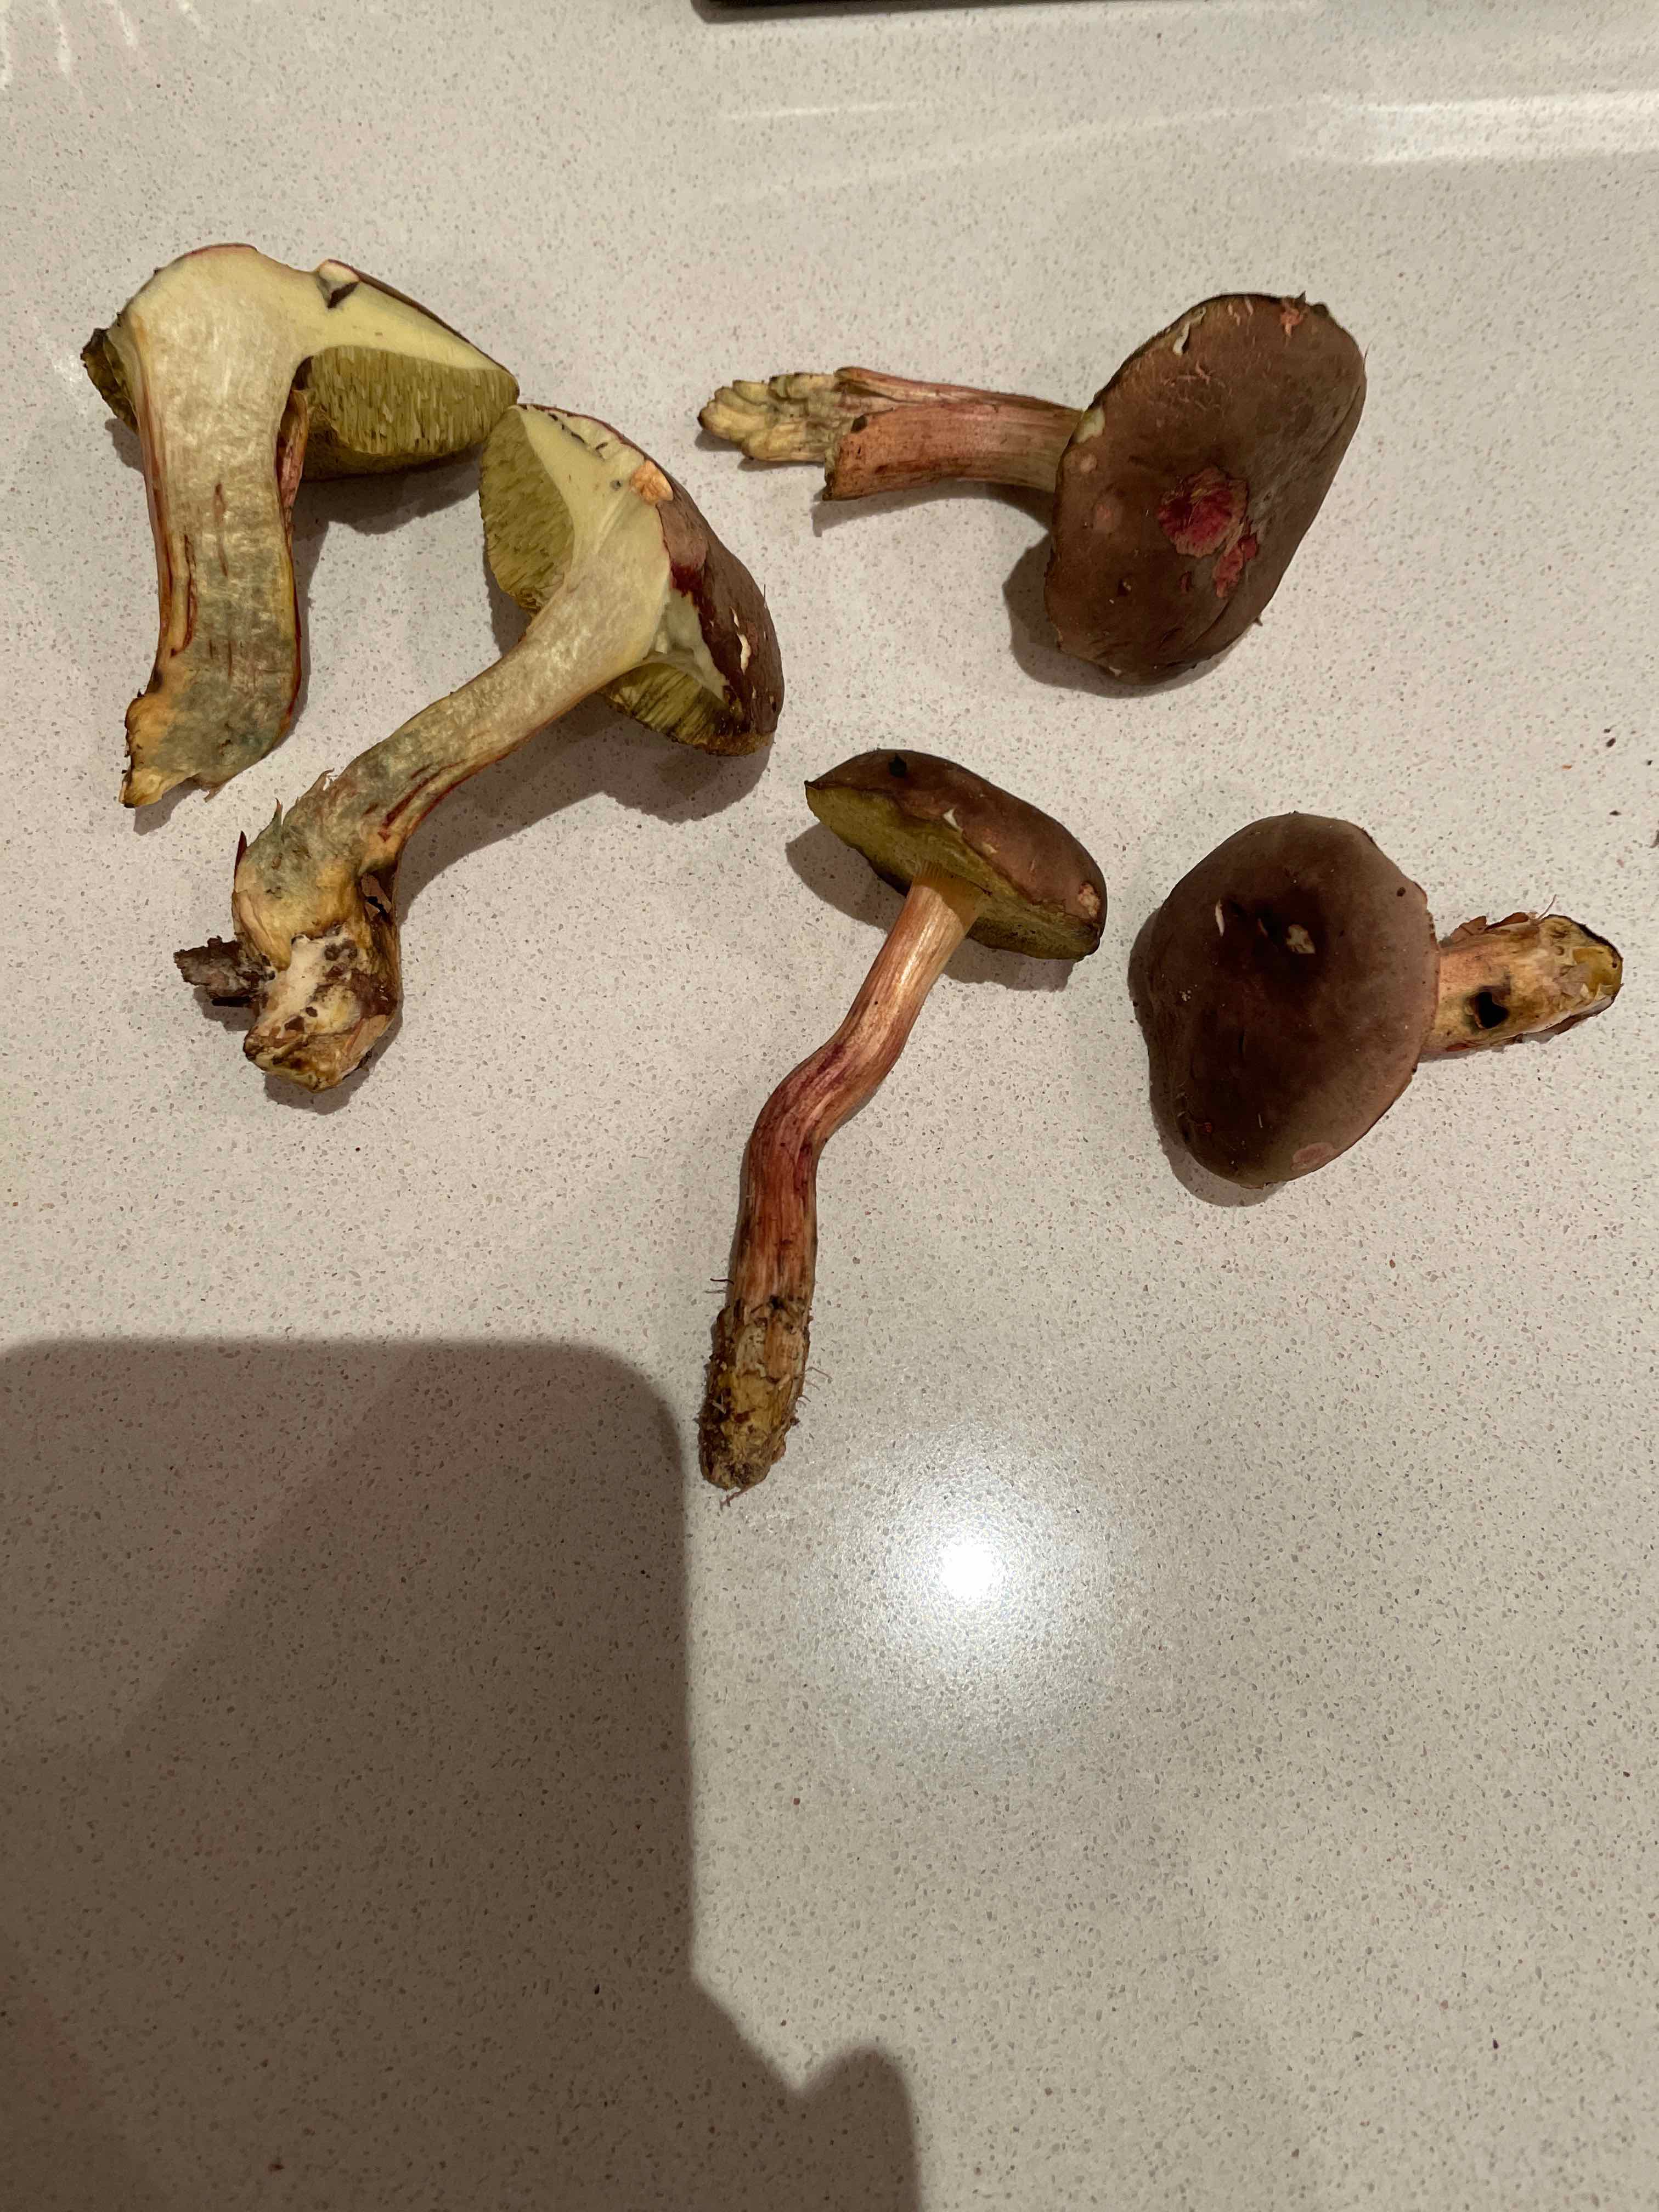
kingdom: Fungi
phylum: Basidiomycota
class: Agaricomycetes
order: Boletales
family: Boletaceae
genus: Xerocomellus
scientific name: Xerocomellus
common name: dværgrørhat
